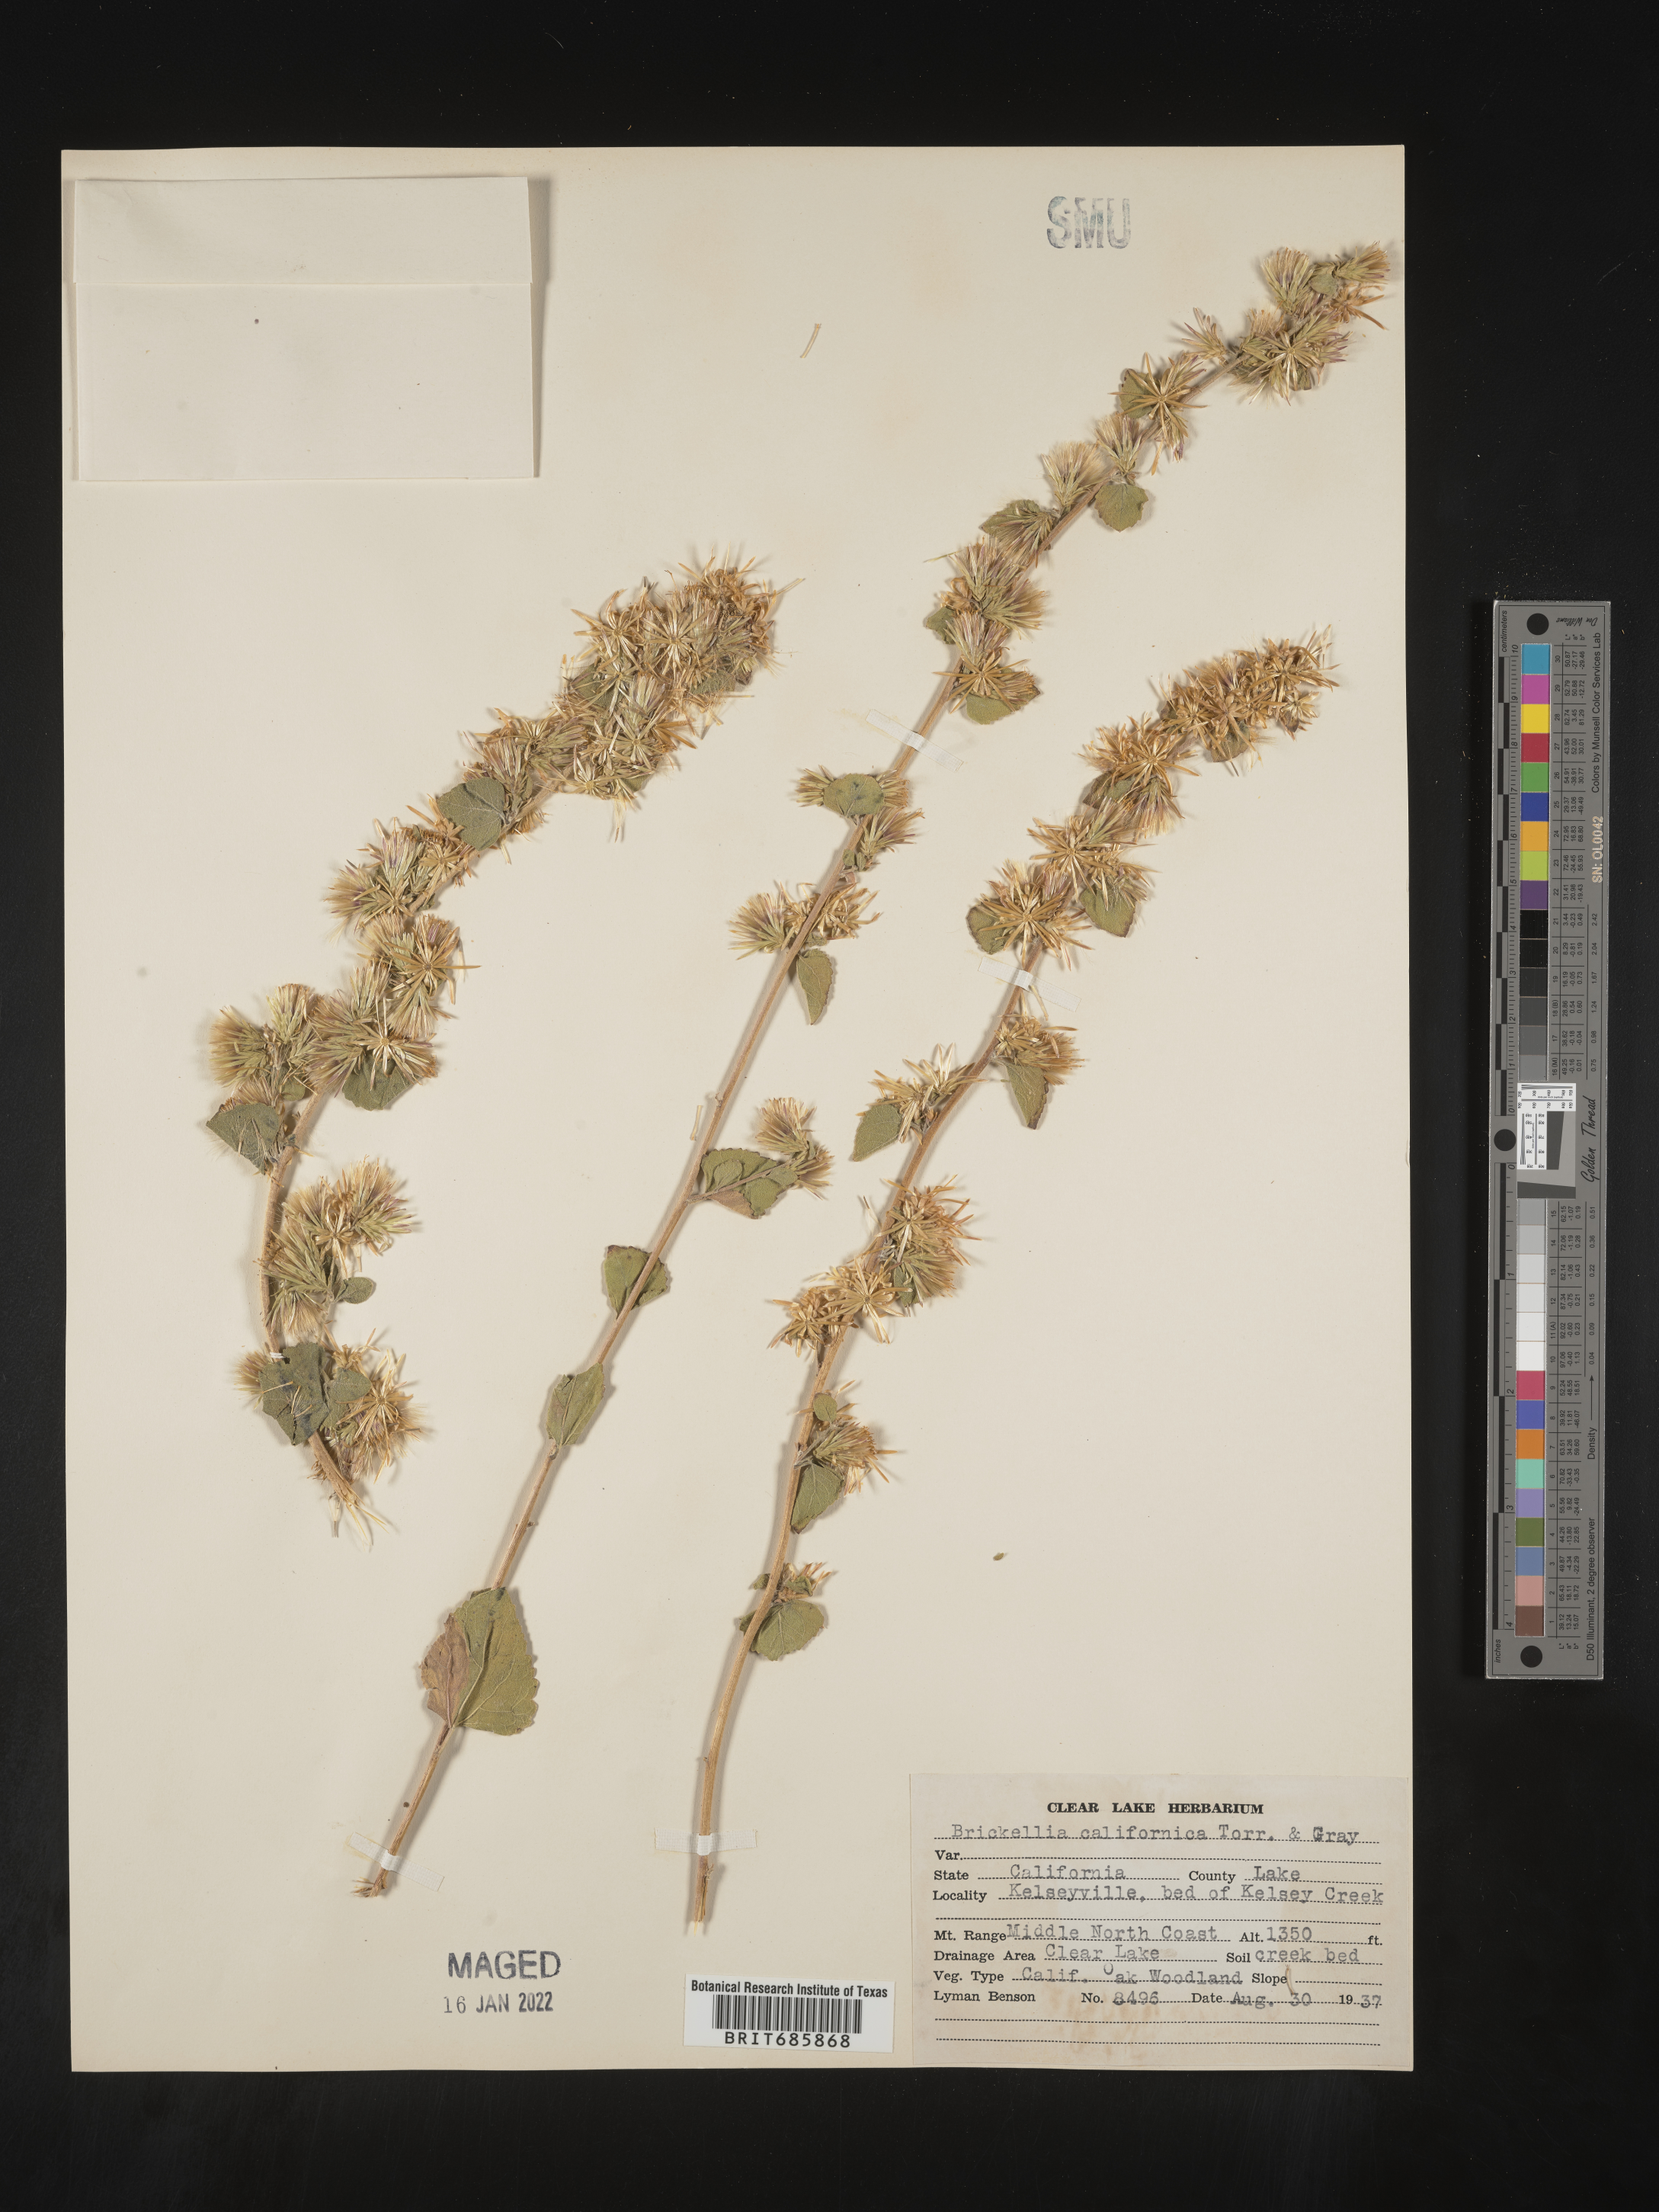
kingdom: Plantae
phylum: Tracheophyta
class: Magnoliopsida
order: Asterales
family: Asteraceae
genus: Brickellia
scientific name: Brickellia californica
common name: California brickellbush
